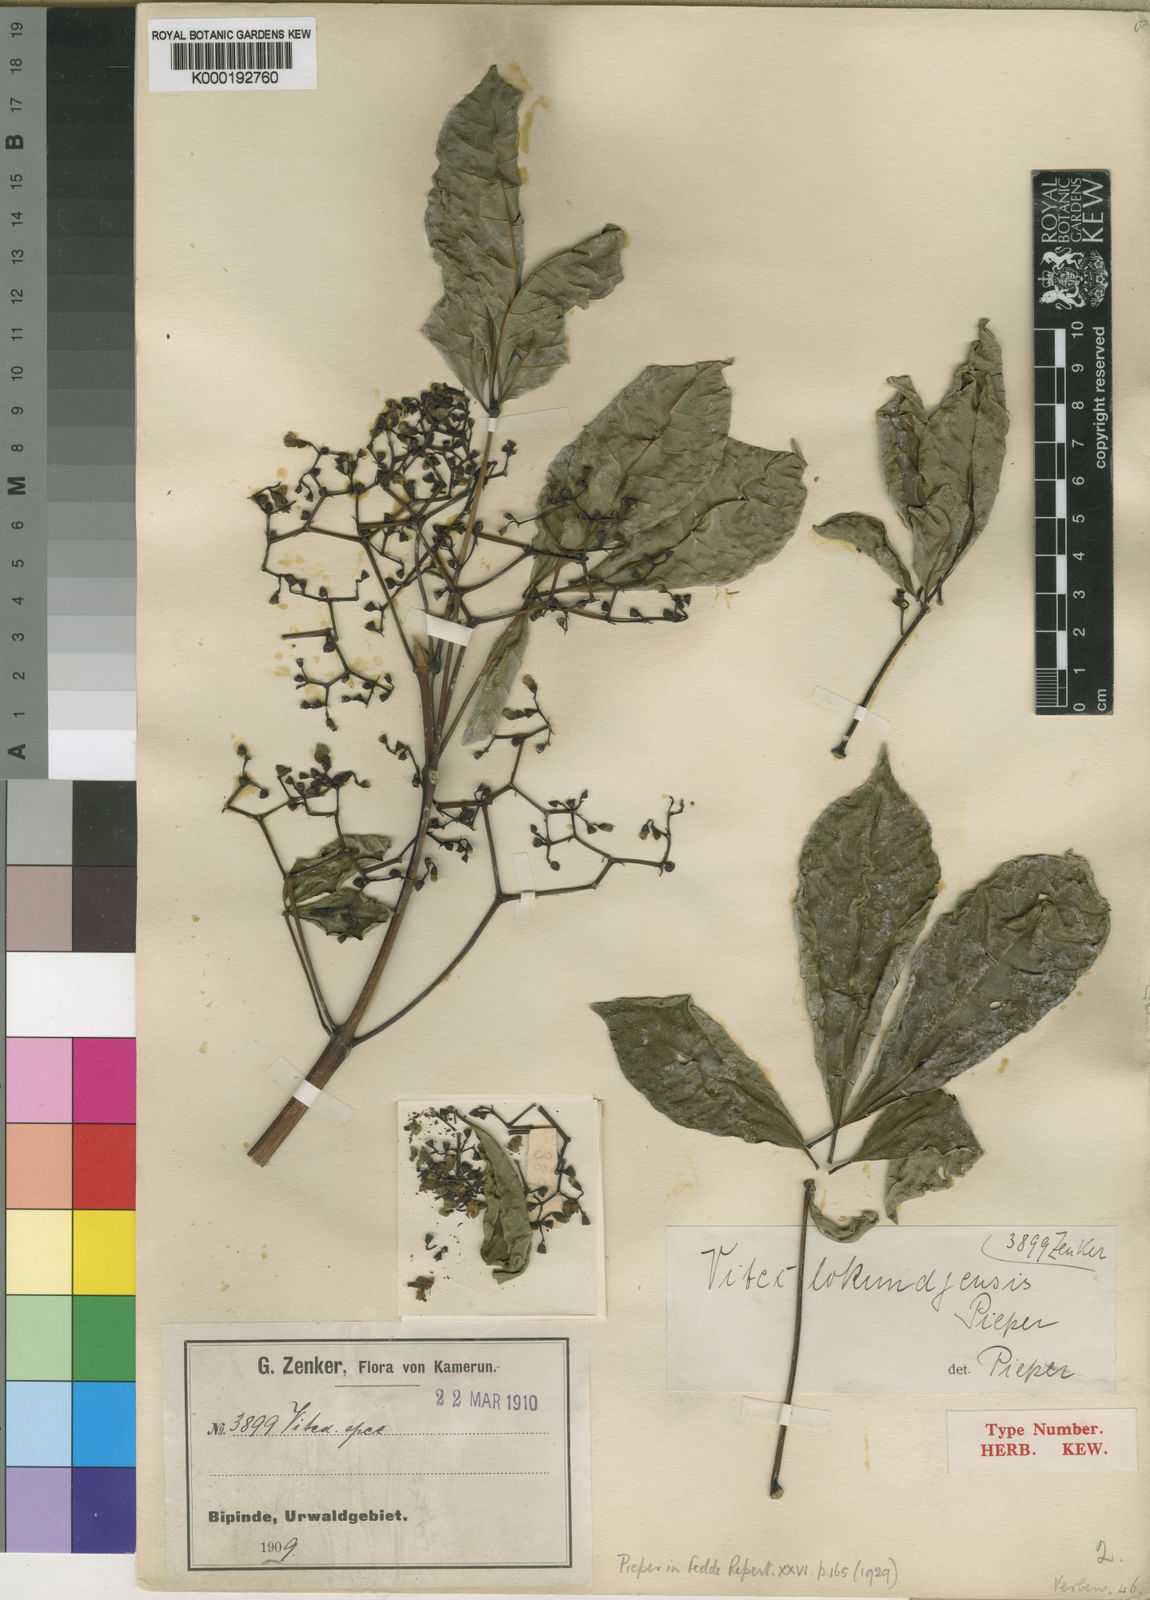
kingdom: Plantae
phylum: Tracheophyta
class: Magnoliopsida
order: Lamiales
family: Lamiaceae
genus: Vitex
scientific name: Vitex lokundjensis
